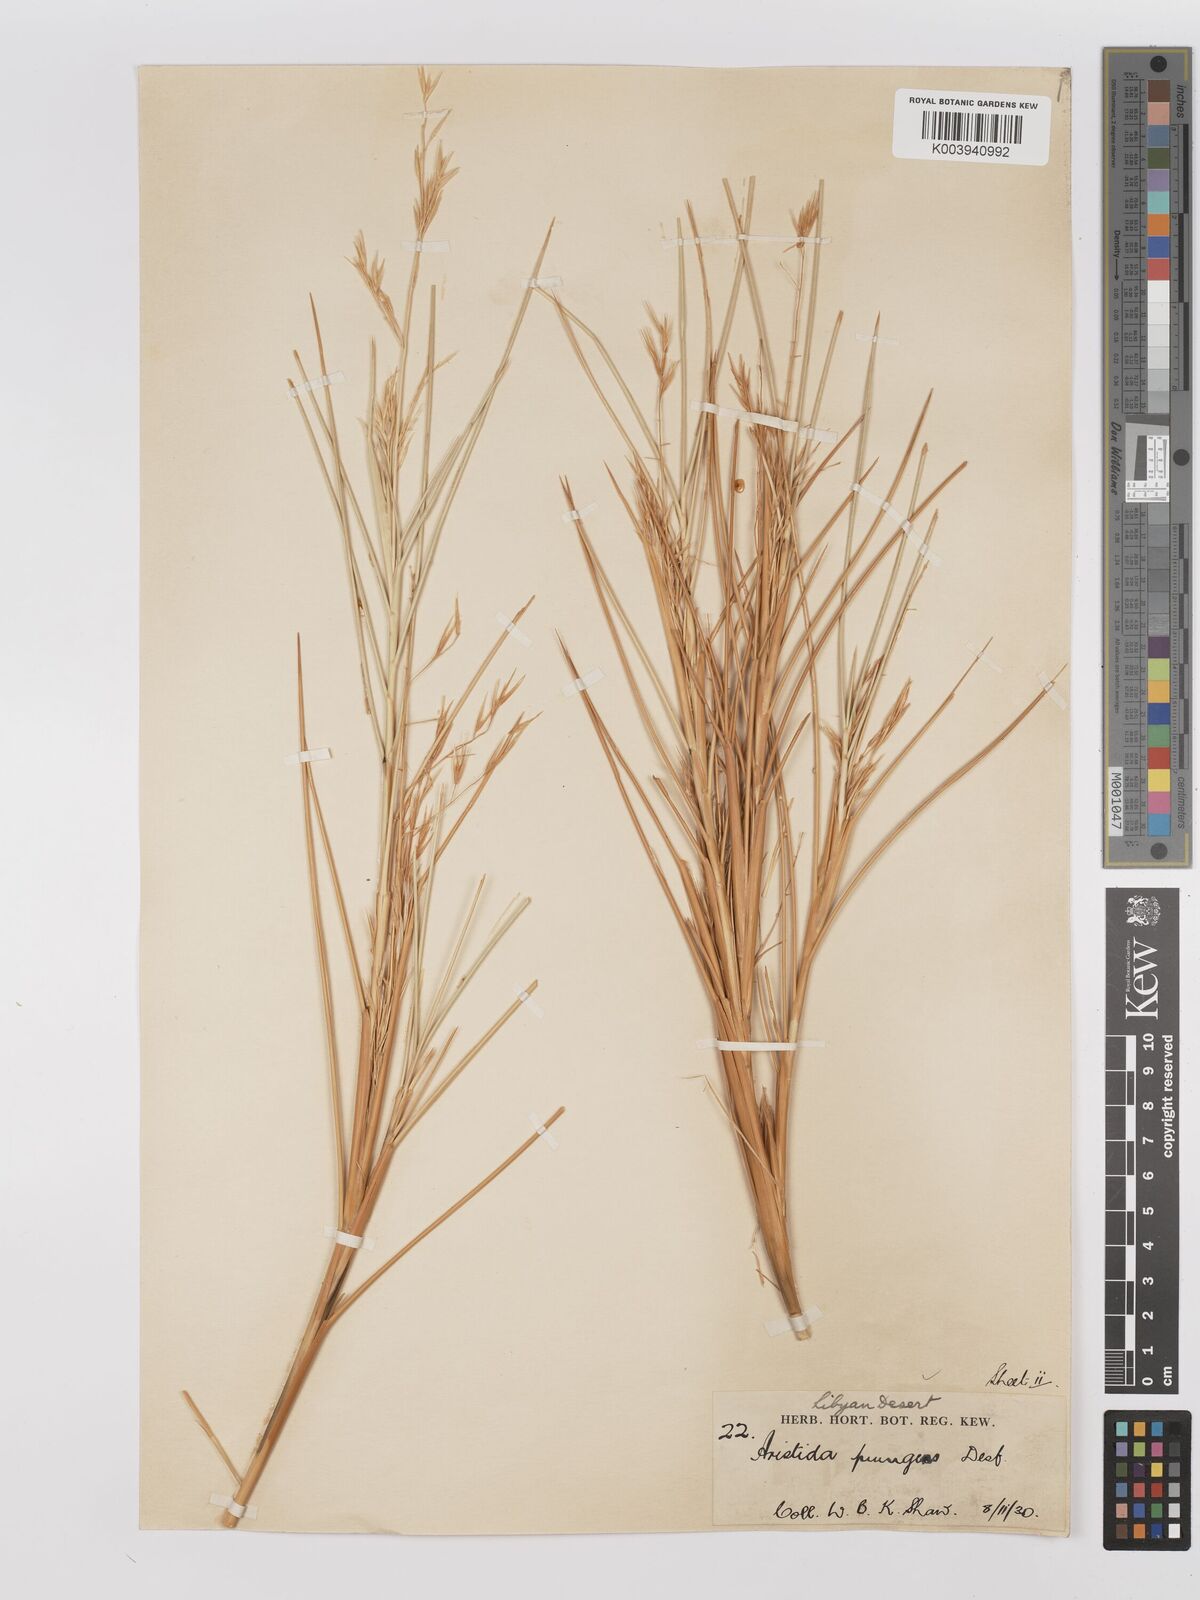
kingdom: Plantae
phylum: Tracheophyta
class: Liliopsida
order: Poales
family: Poaceae
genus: Stipagrostis
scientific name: Stipagrostis pungens
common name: Three-awn grass
